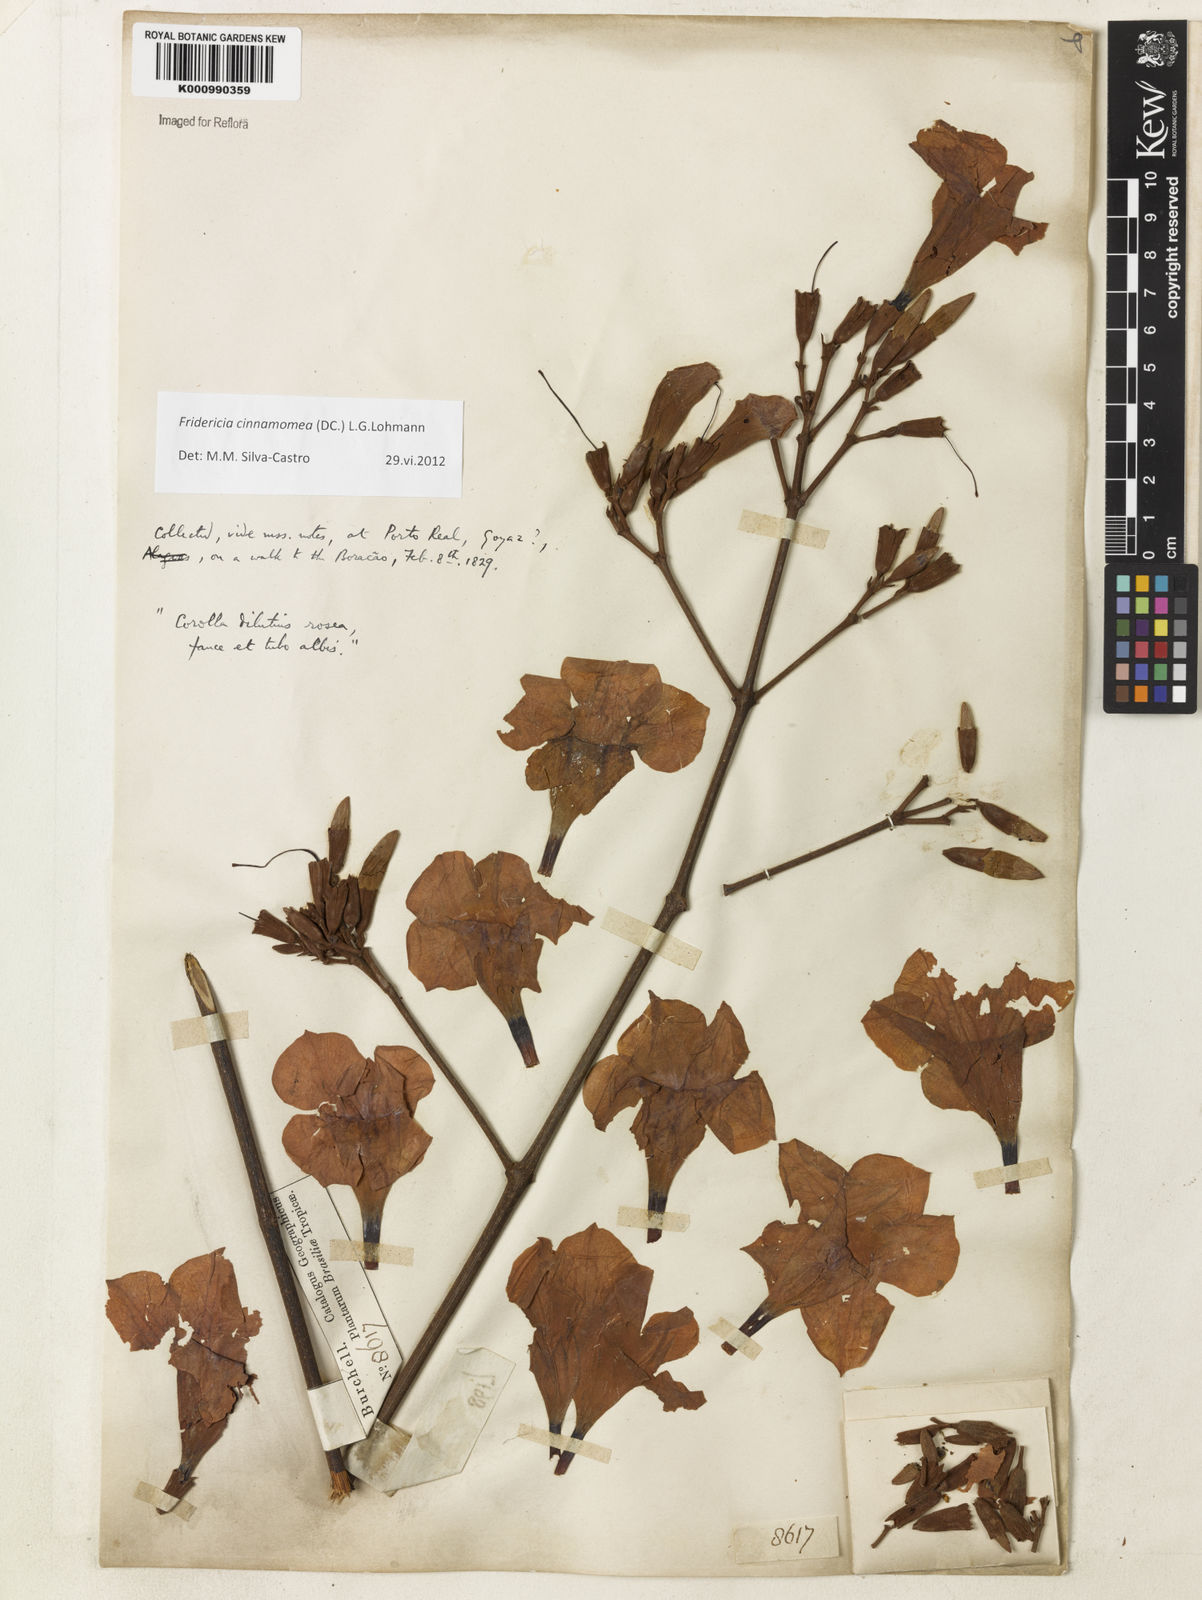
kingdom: Plantae
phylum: Tracheophyta
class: Magnoliopsida
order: Lamiales
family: Bignoniaceae
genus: Fridericia
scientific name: Fridericia cinnamomea
